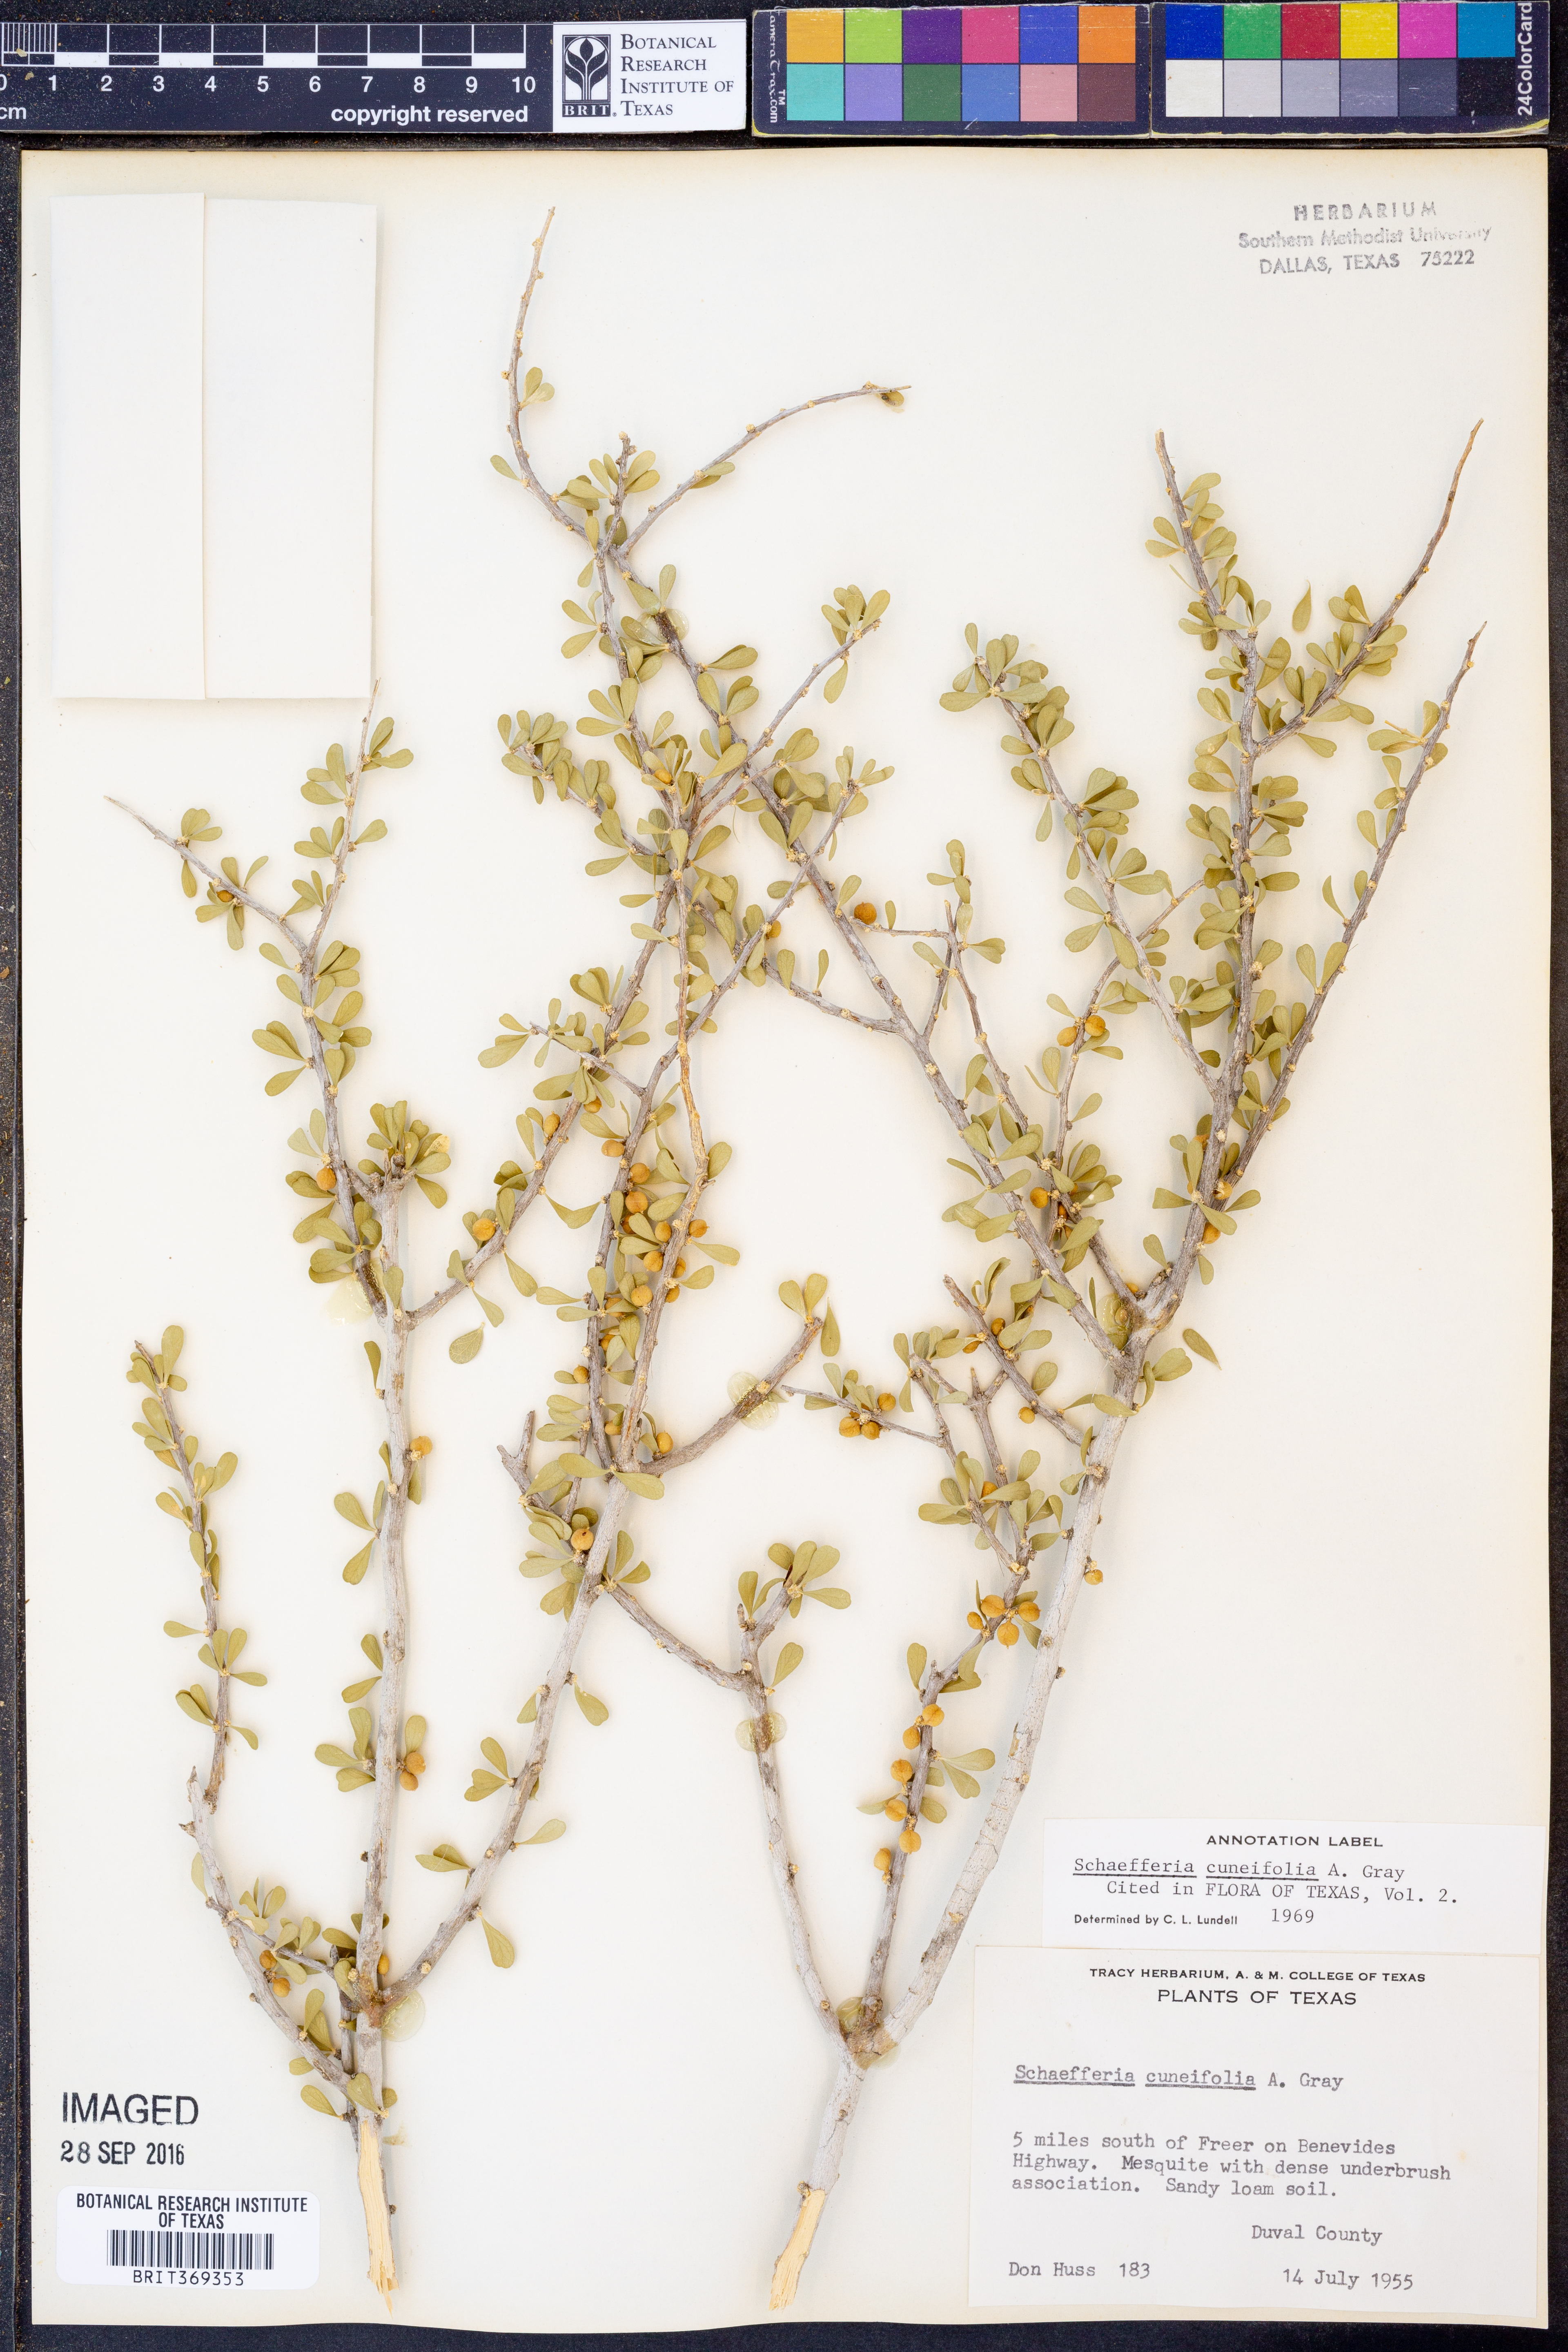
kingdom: Plantae
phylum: Tracheophyta
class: Magnoliopsida
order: Celastrales
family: Celastraceae
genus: Schaefferia
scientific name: Schaefferia cuneifolia
